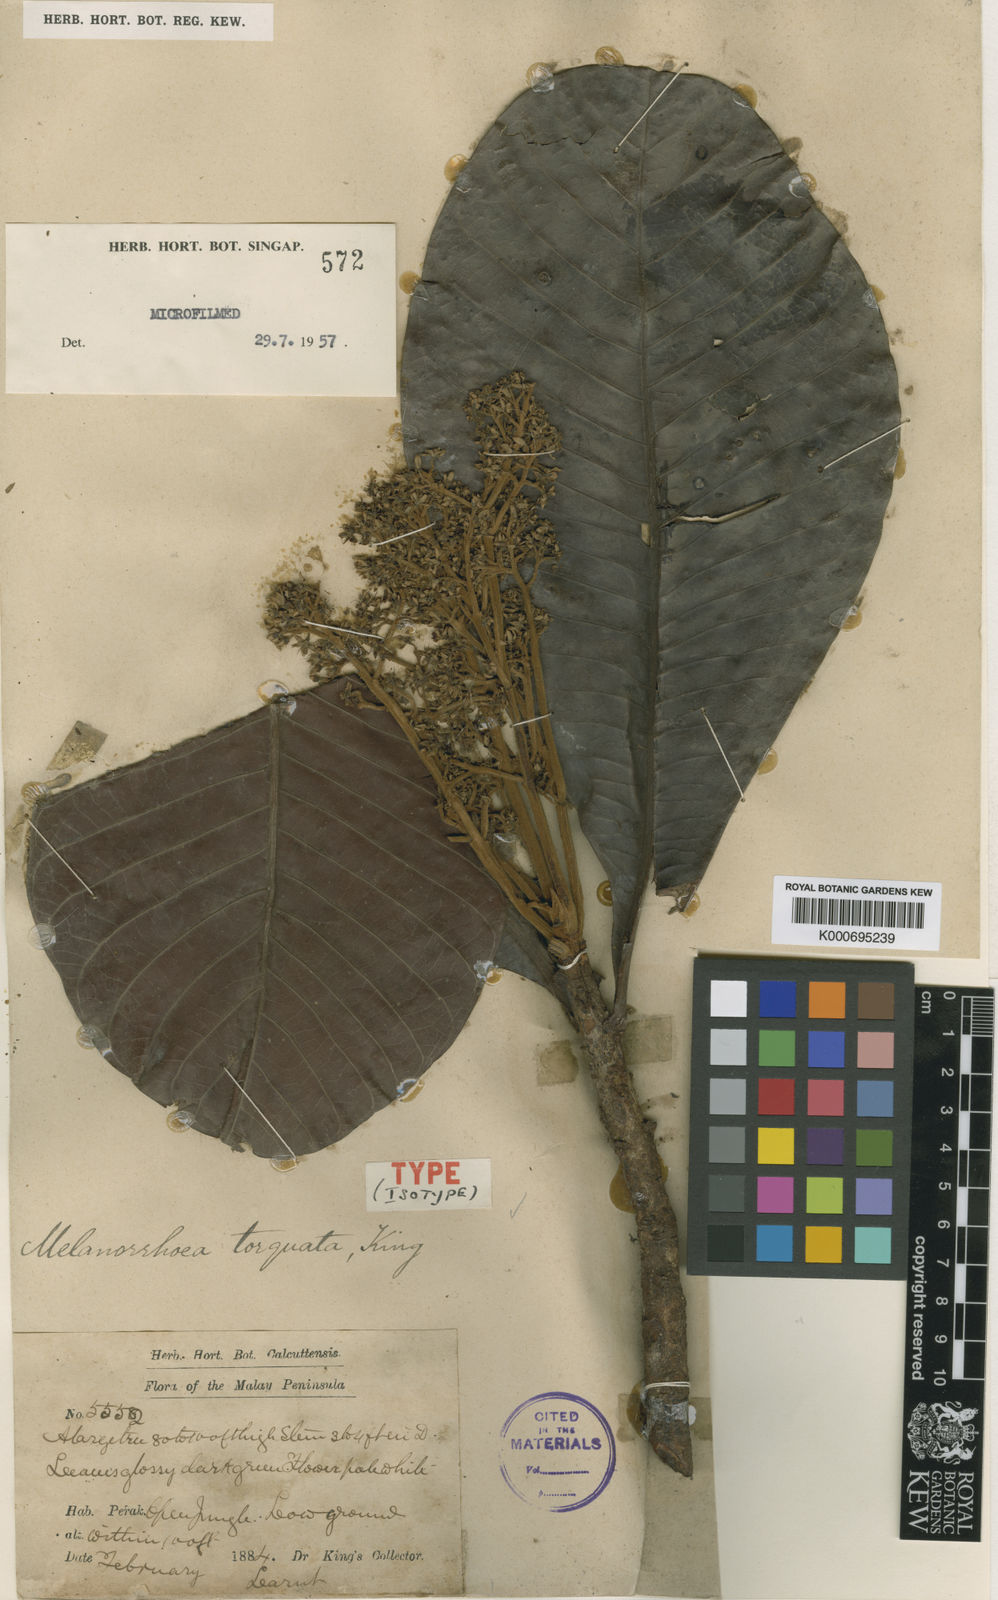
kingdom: Plantae
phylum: Tracheophyta
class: Magnoliopsida
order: Sapindales
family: Anacardiaceae
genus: Gluta
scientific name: Gluta torquata
